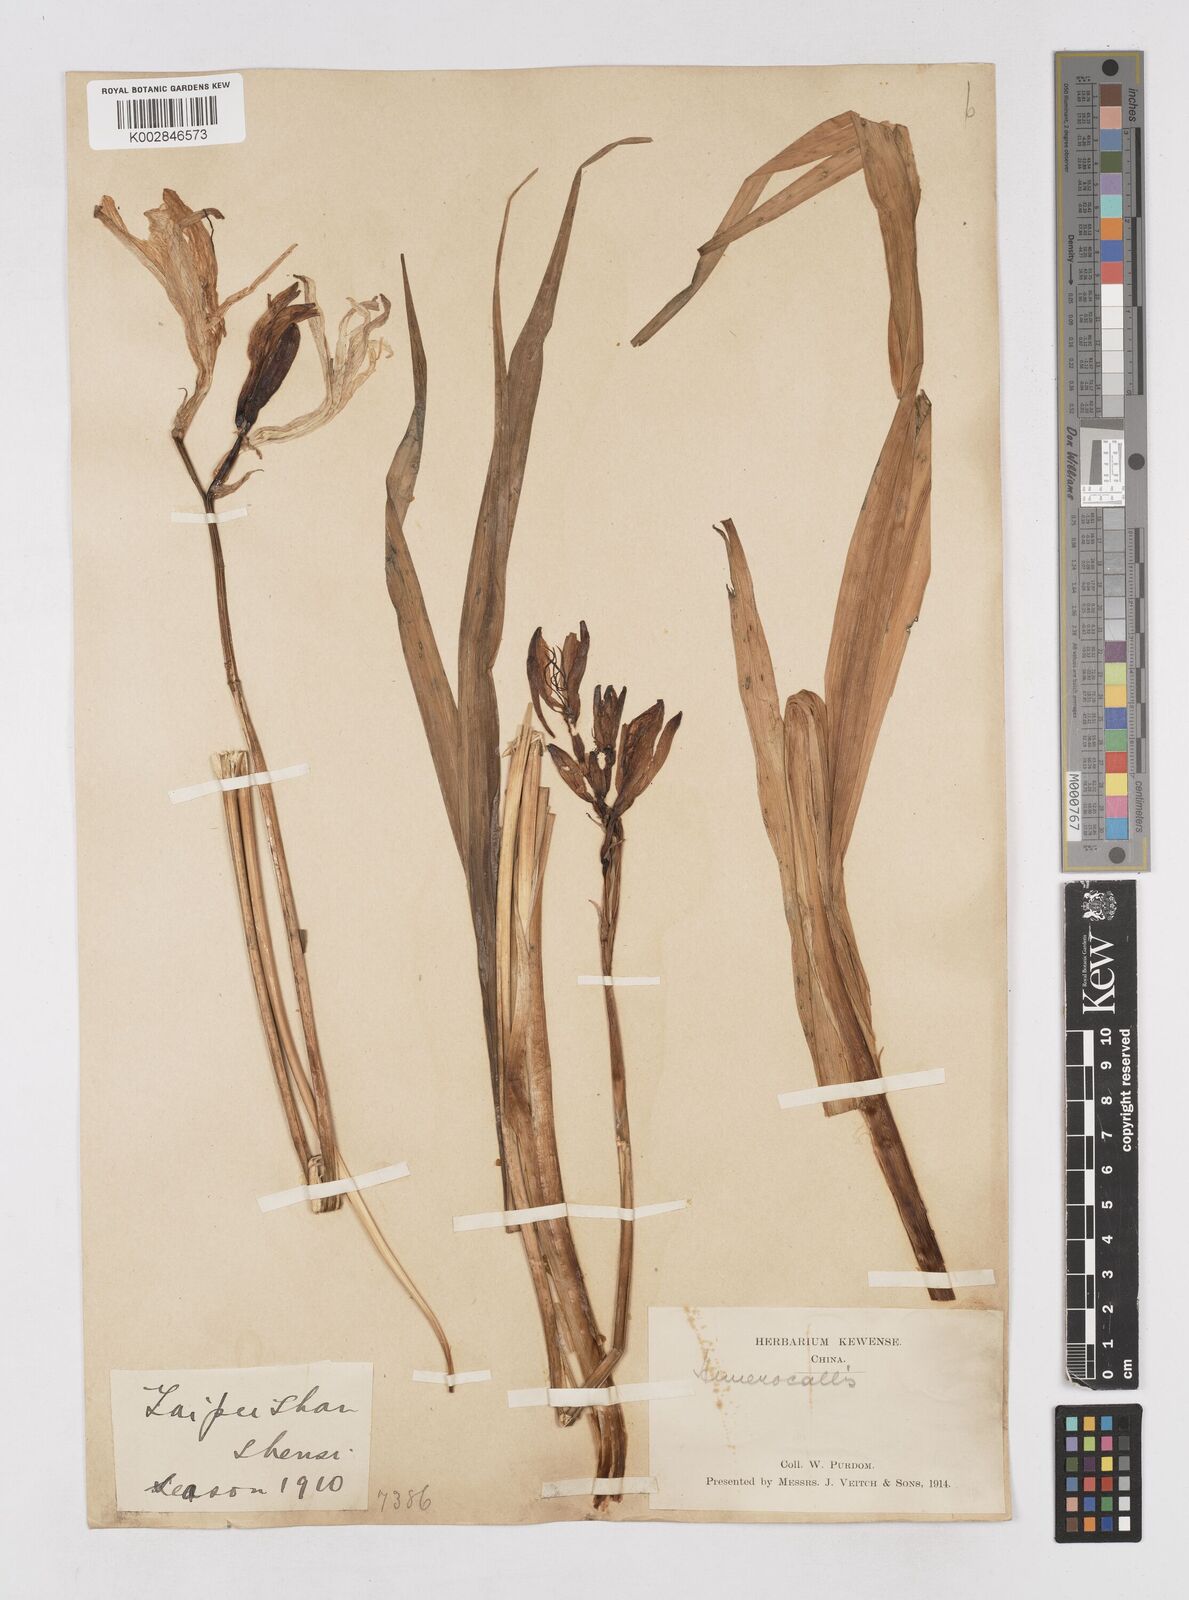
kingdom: Plantae
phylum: Tracheophyta
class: Liliopsida
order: Asparagales
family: Asphodelaceae
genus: Hemerocallis
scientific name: Hemerocallis
